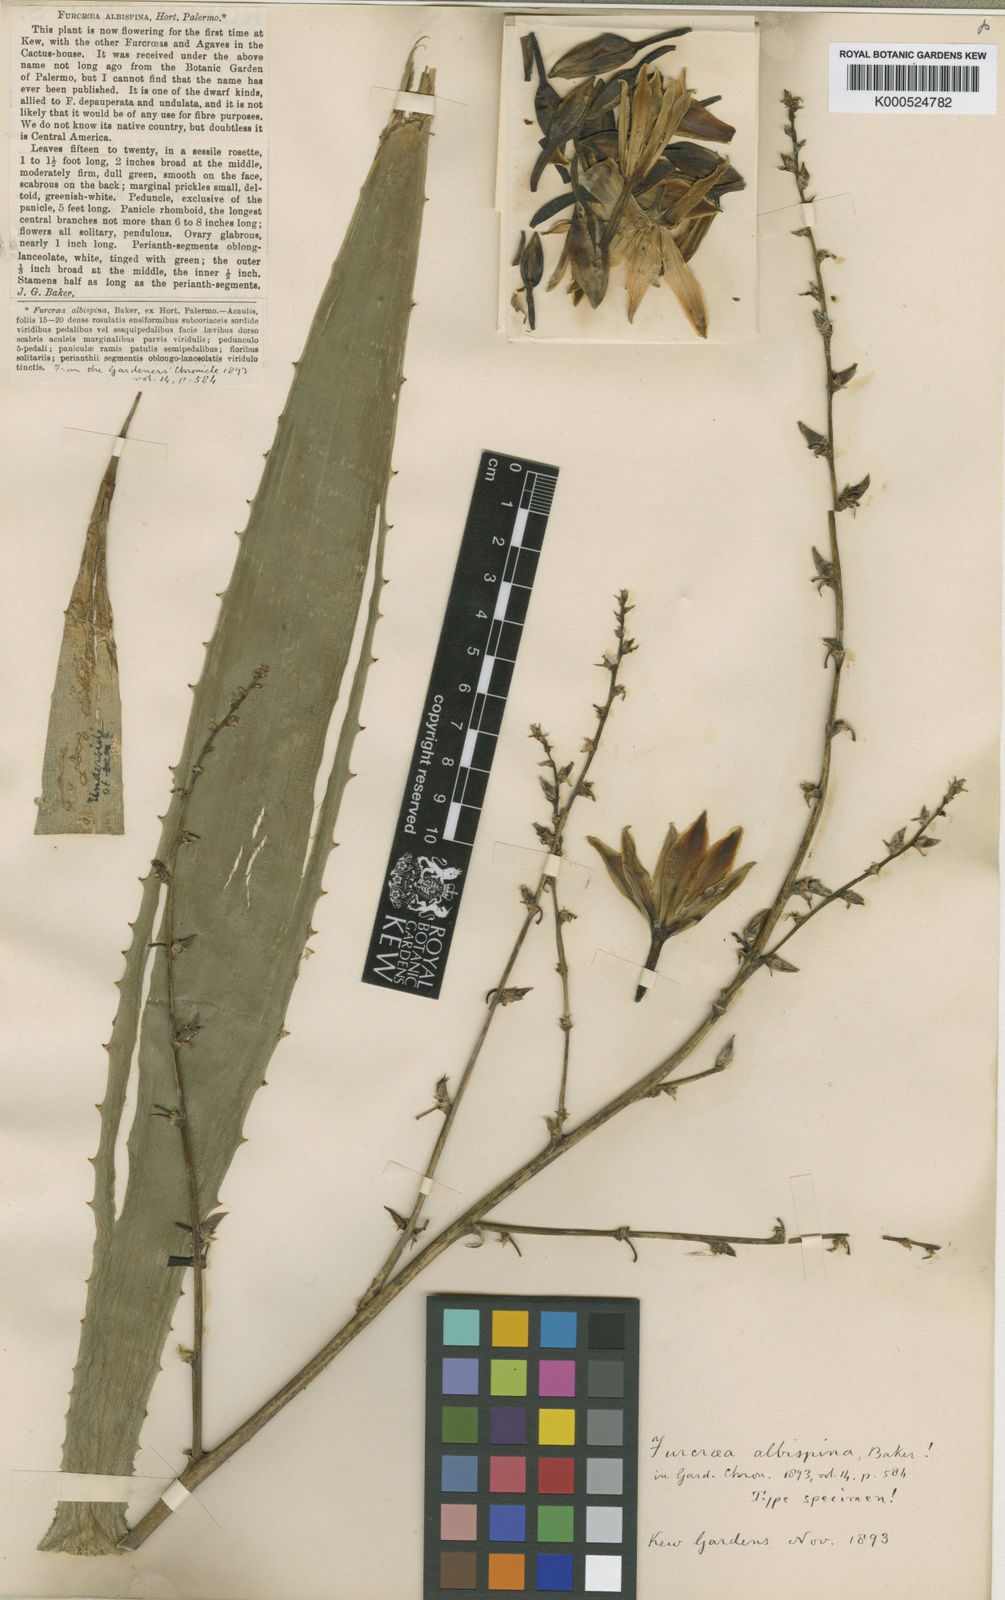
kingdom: Plantae
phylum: Tracheophyta
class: Liliopsida
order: Asparagales
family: Asparagaceae
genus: Furcraea
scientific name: Furcraea depauperata
